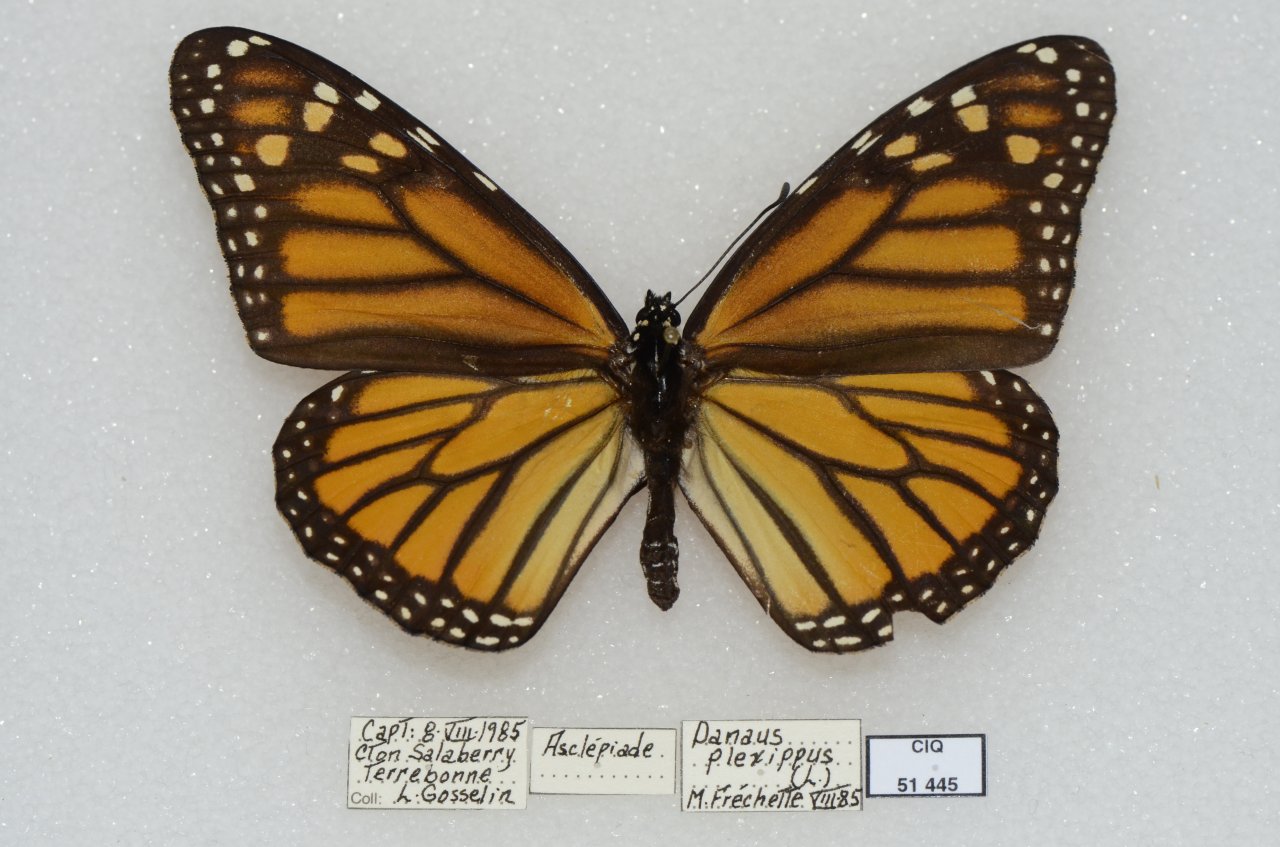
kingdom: Animalia
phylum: Arthropoda
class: Insecta
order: Lepidoptera
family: Nymphalidae
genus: Danaus
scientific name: Danaus plexippus
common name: Monarch
